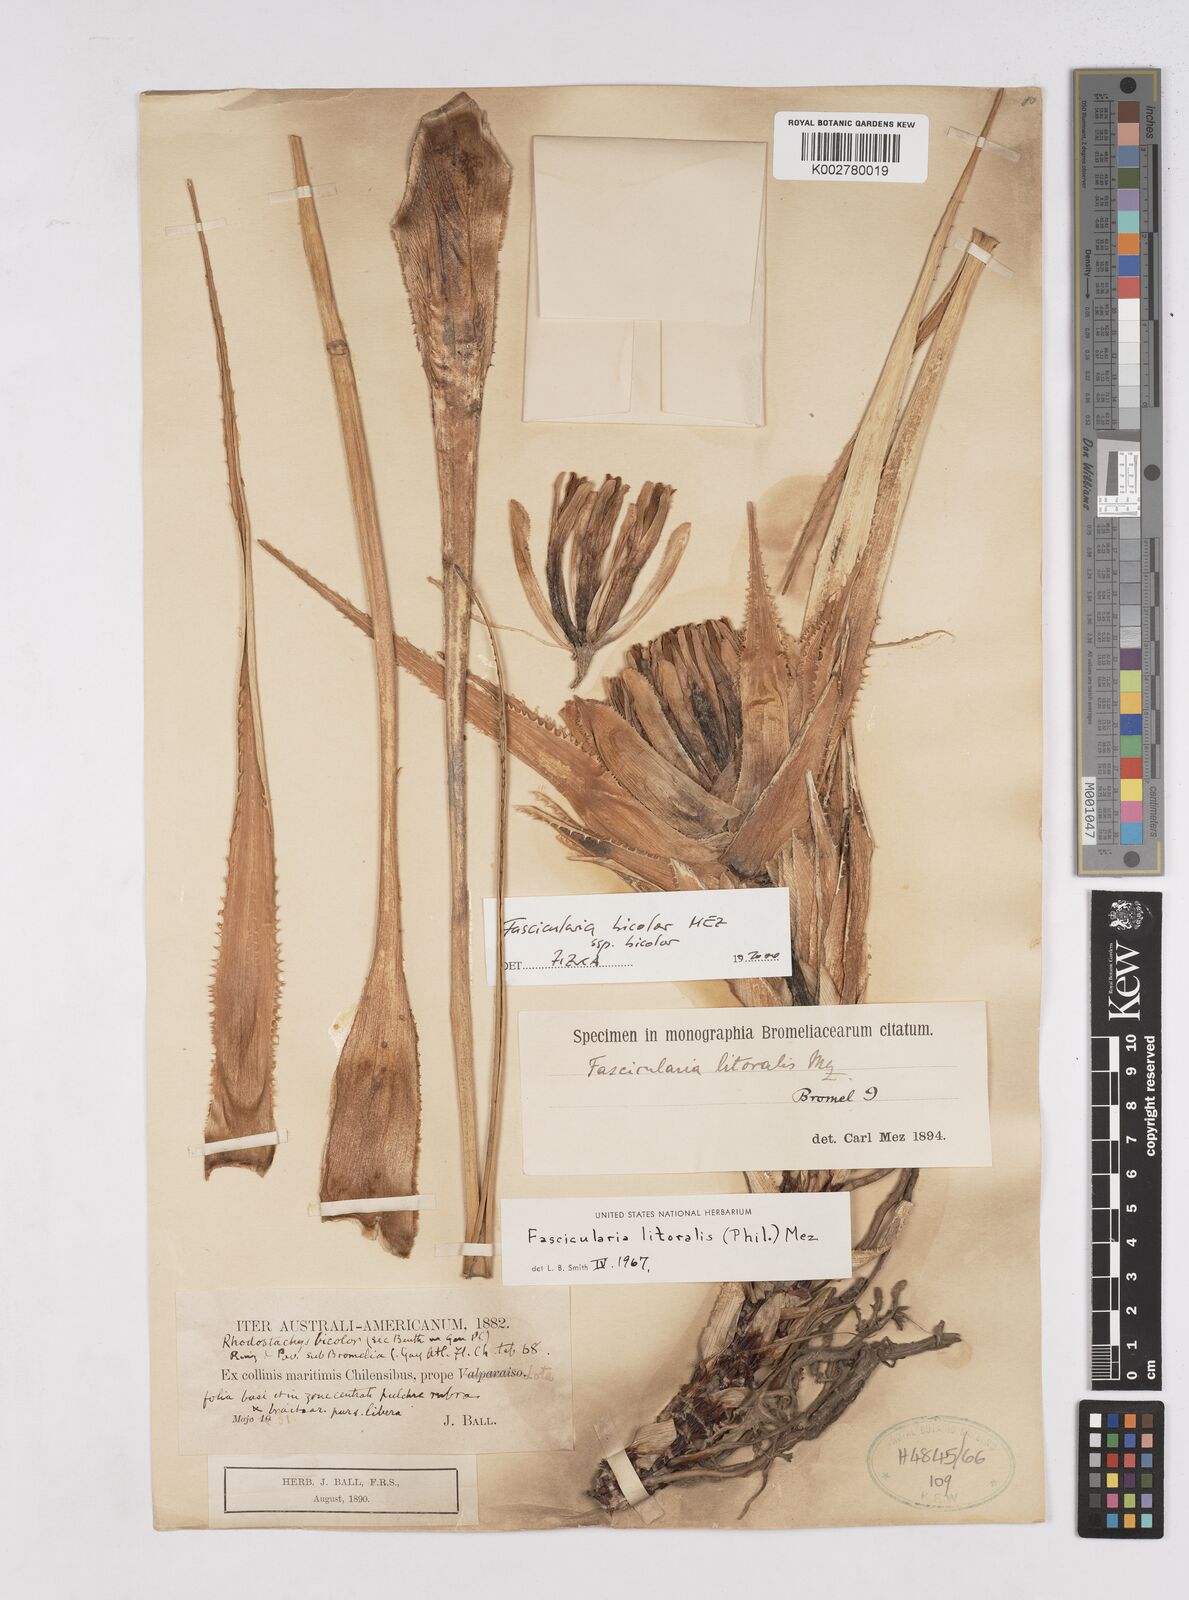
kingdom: Plantae
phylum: Tracheophyta
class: Liliopsida
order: Poales
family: Bromeliaceae
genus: Ochagavia
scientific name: Ochagavia litoralis
